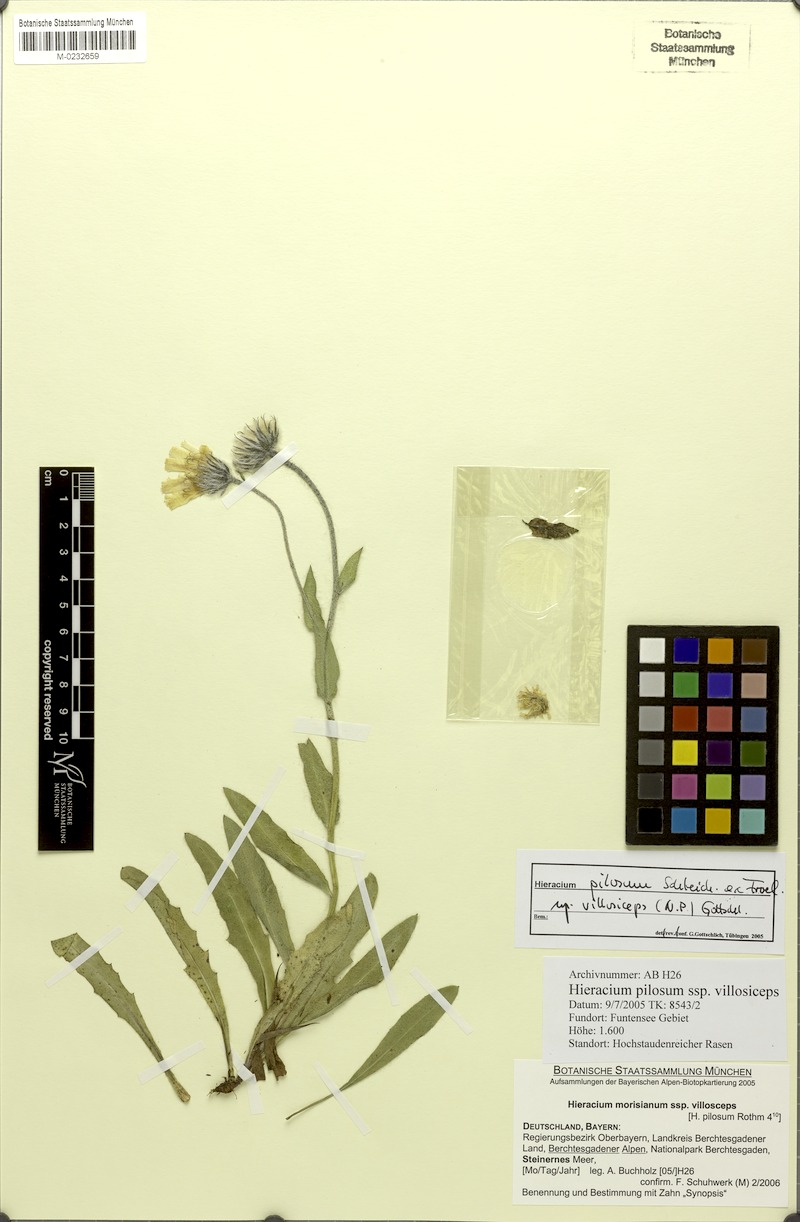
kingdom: Plantae
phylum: Tracheophyta
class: Magnoliopsida
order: Asterales
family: Asteraceae
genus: Hieracium
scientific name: Hieracium pilosum
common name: Fimbriate-pitted hawkweed
